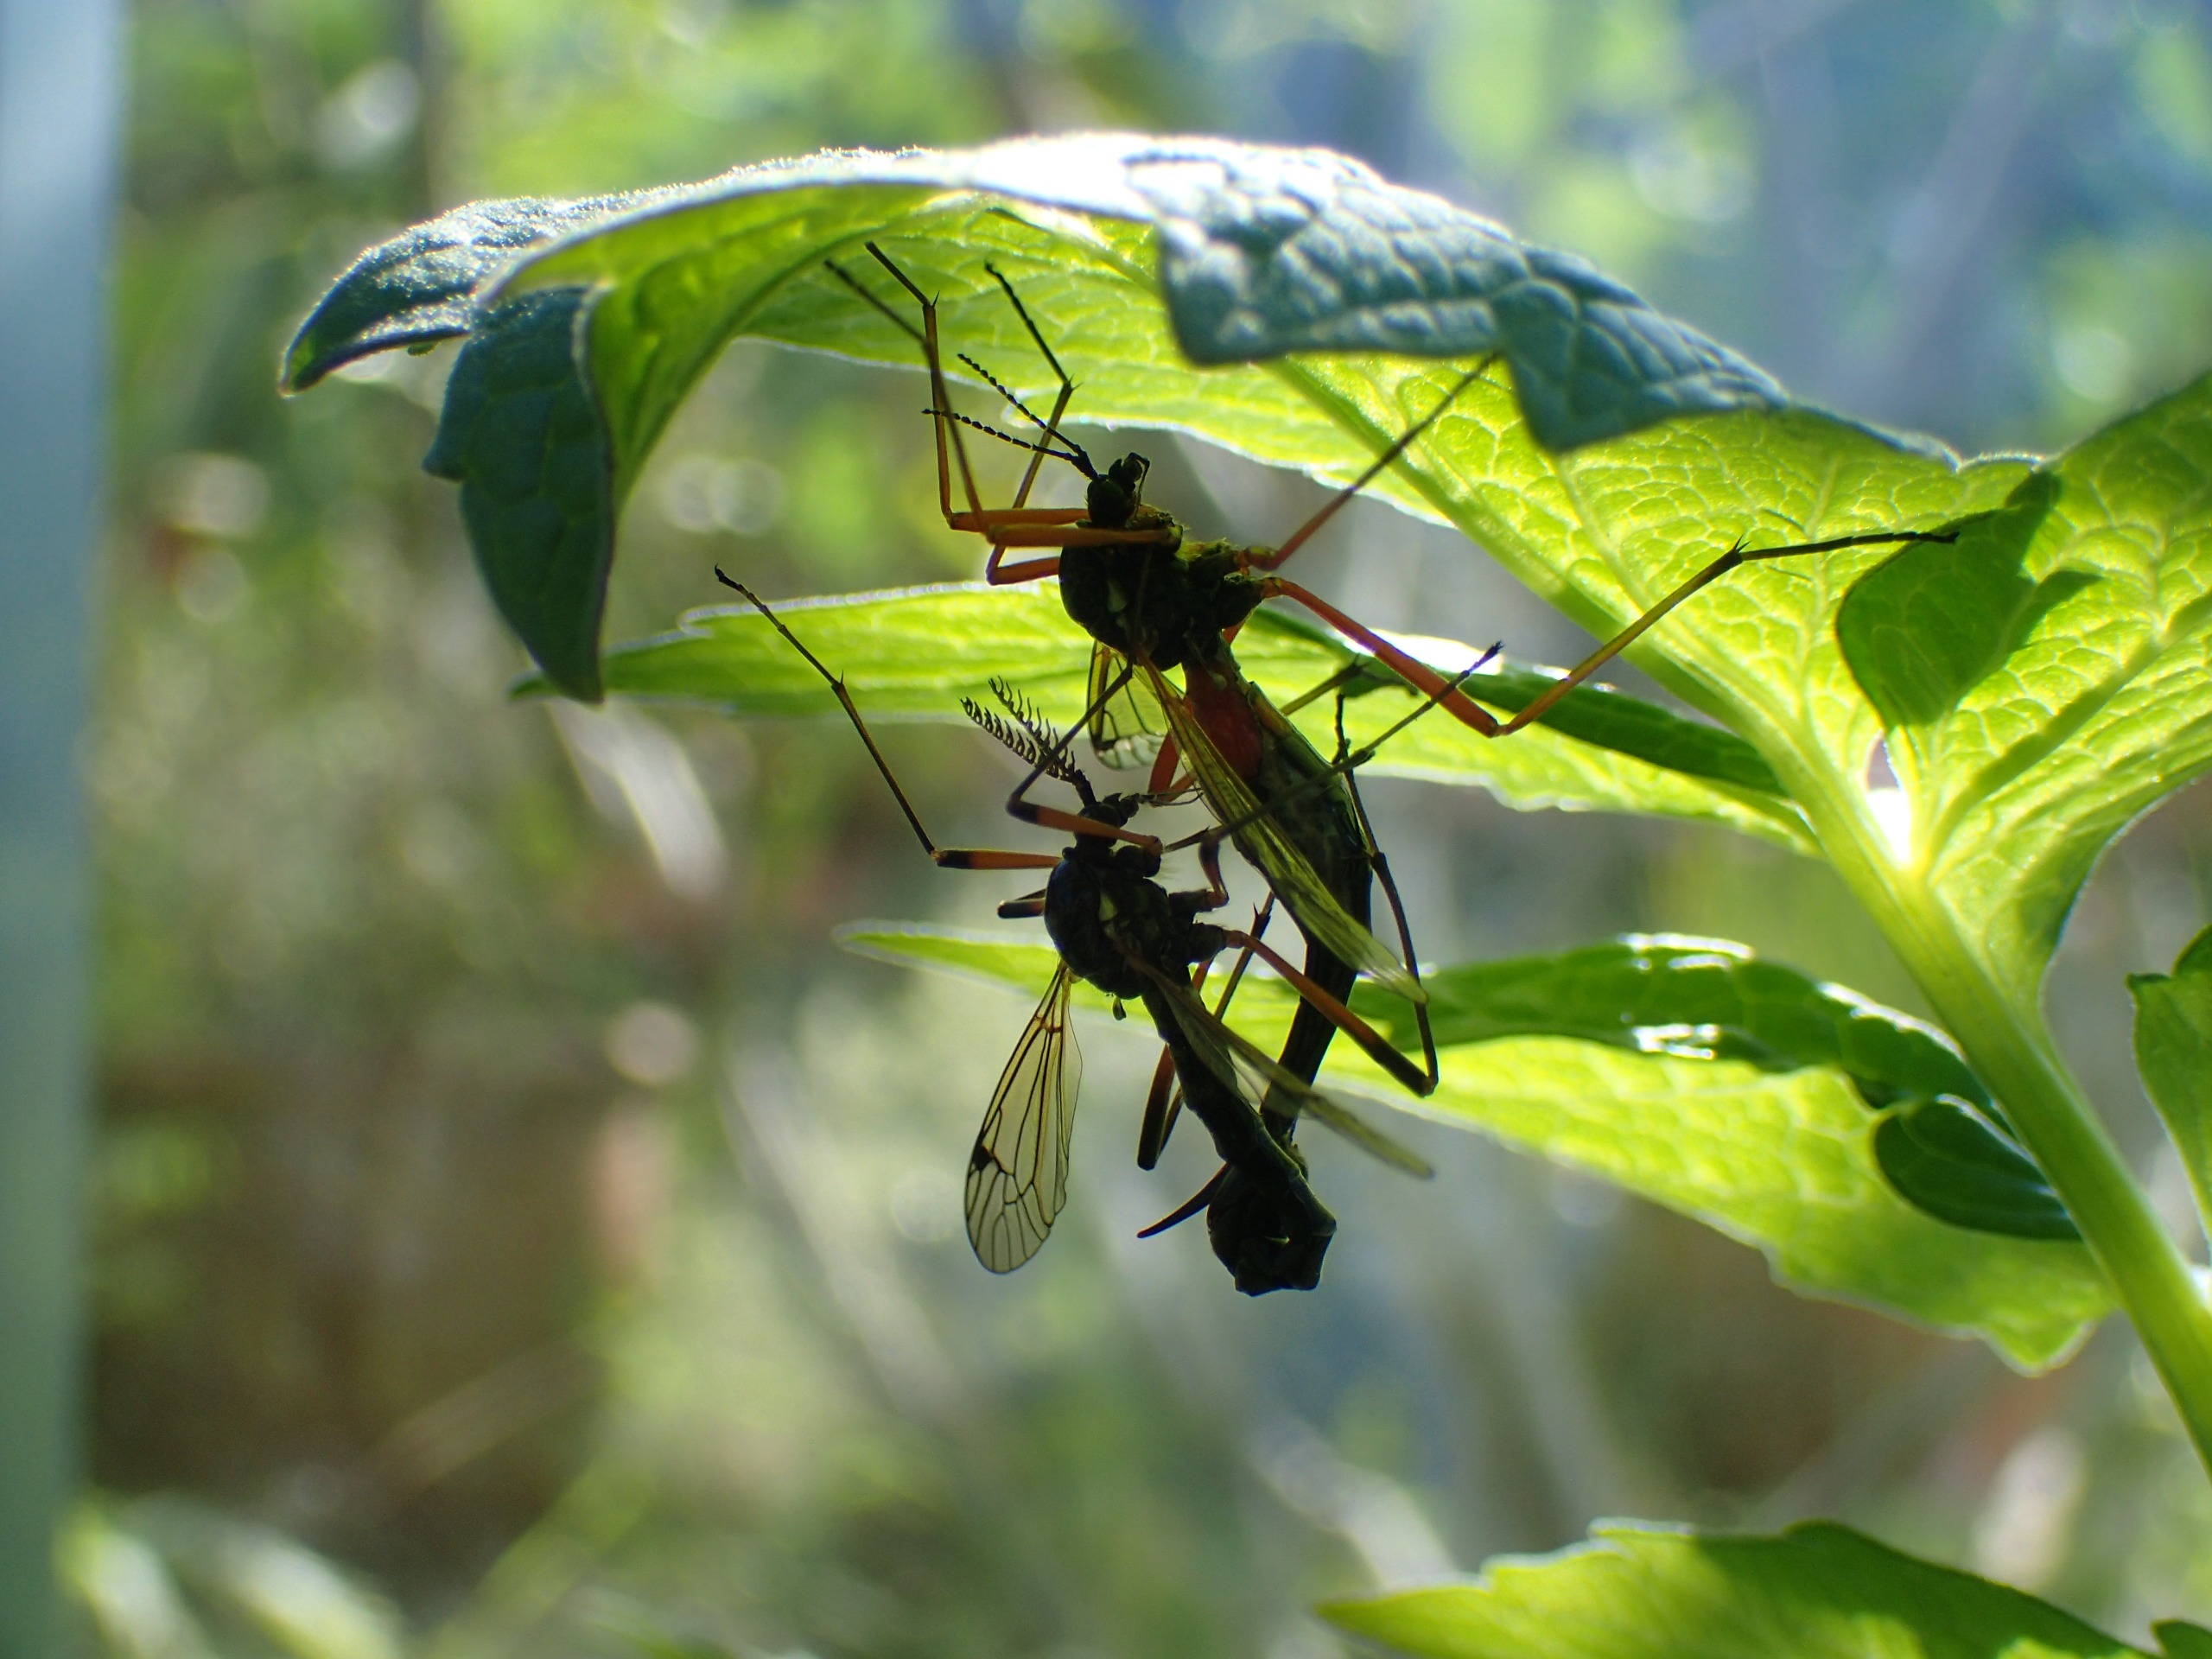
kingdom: Animalia
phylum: Arthropoda
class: Insecta
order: Diptera
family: Tipulidae
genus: Tanyptera
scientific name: Tanyptera atrata
